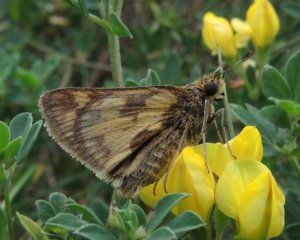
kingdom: Animalia
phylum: Arthropoda
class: Insecta
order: Lepidoptera
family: Hesperiidae
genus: Polites
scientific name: Polites coras
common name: Peck's Skipper
